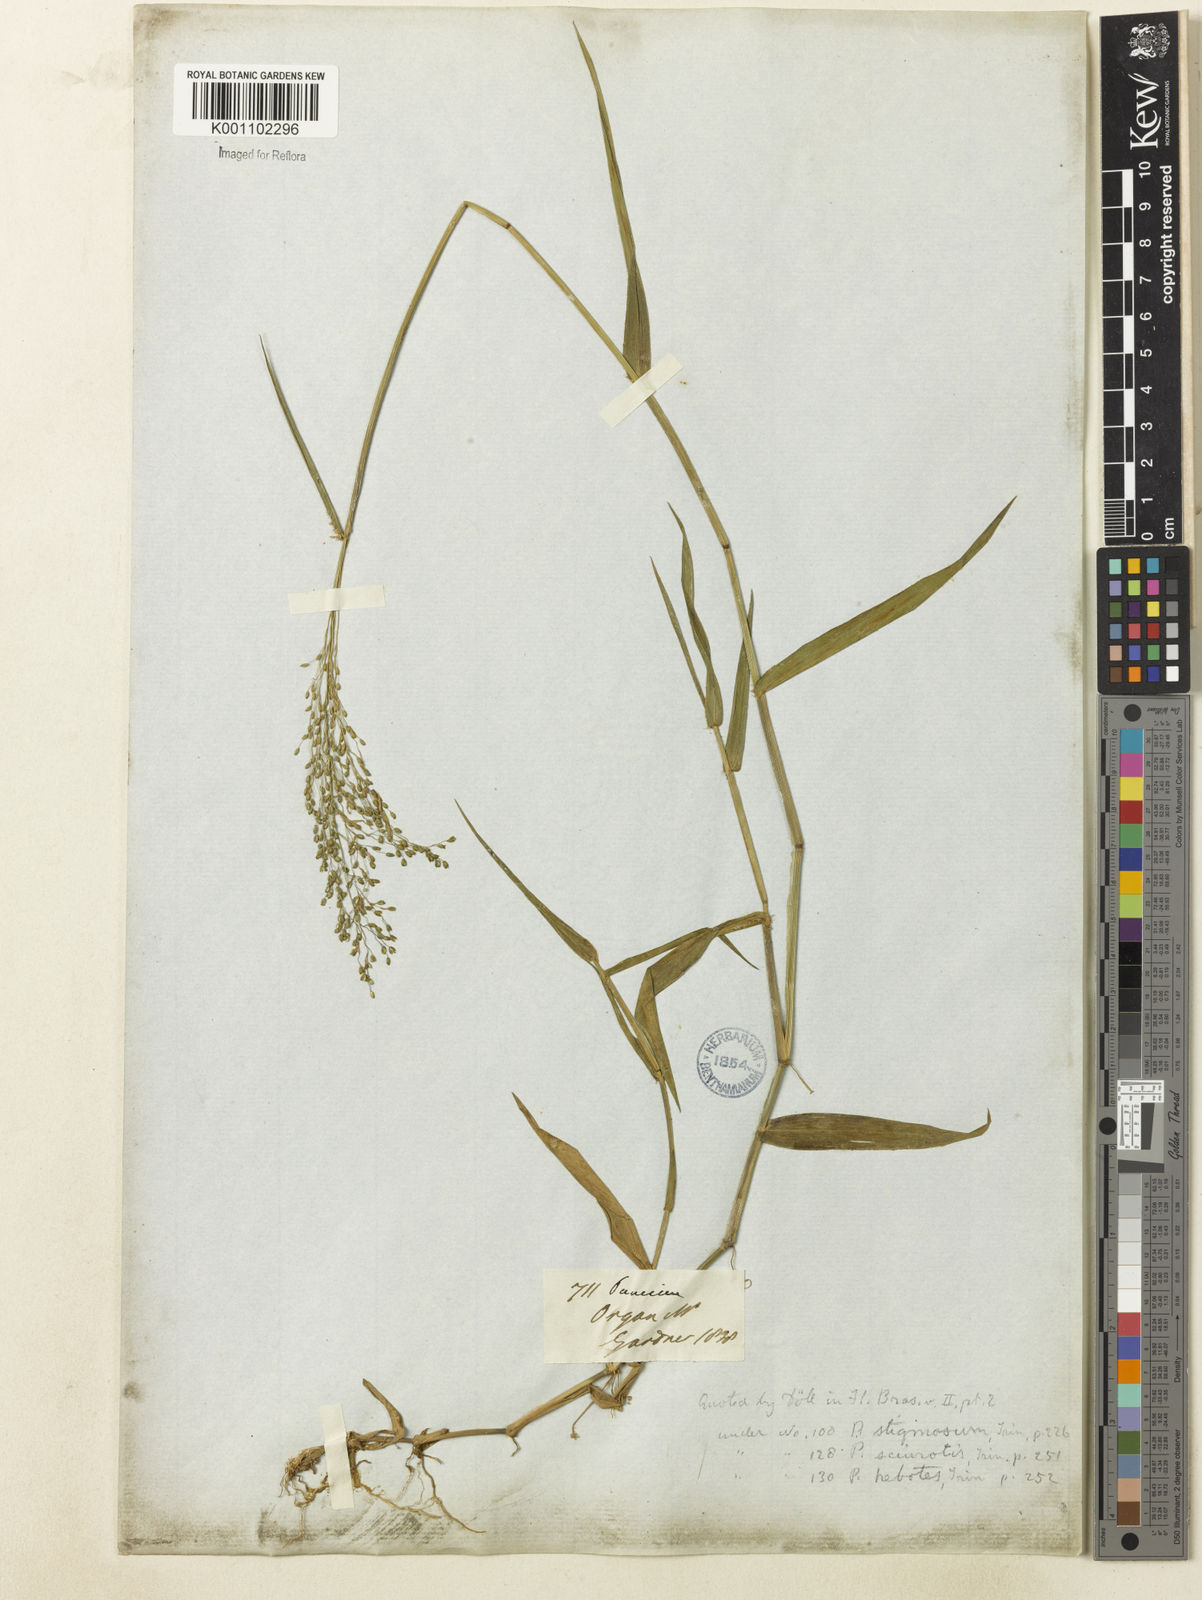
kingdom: Plantae
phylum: Tracheophyta
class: Liliopsida
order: Poales
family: Poaceae
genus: Dichanthelium
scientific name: Dichanthelium stigmosum
